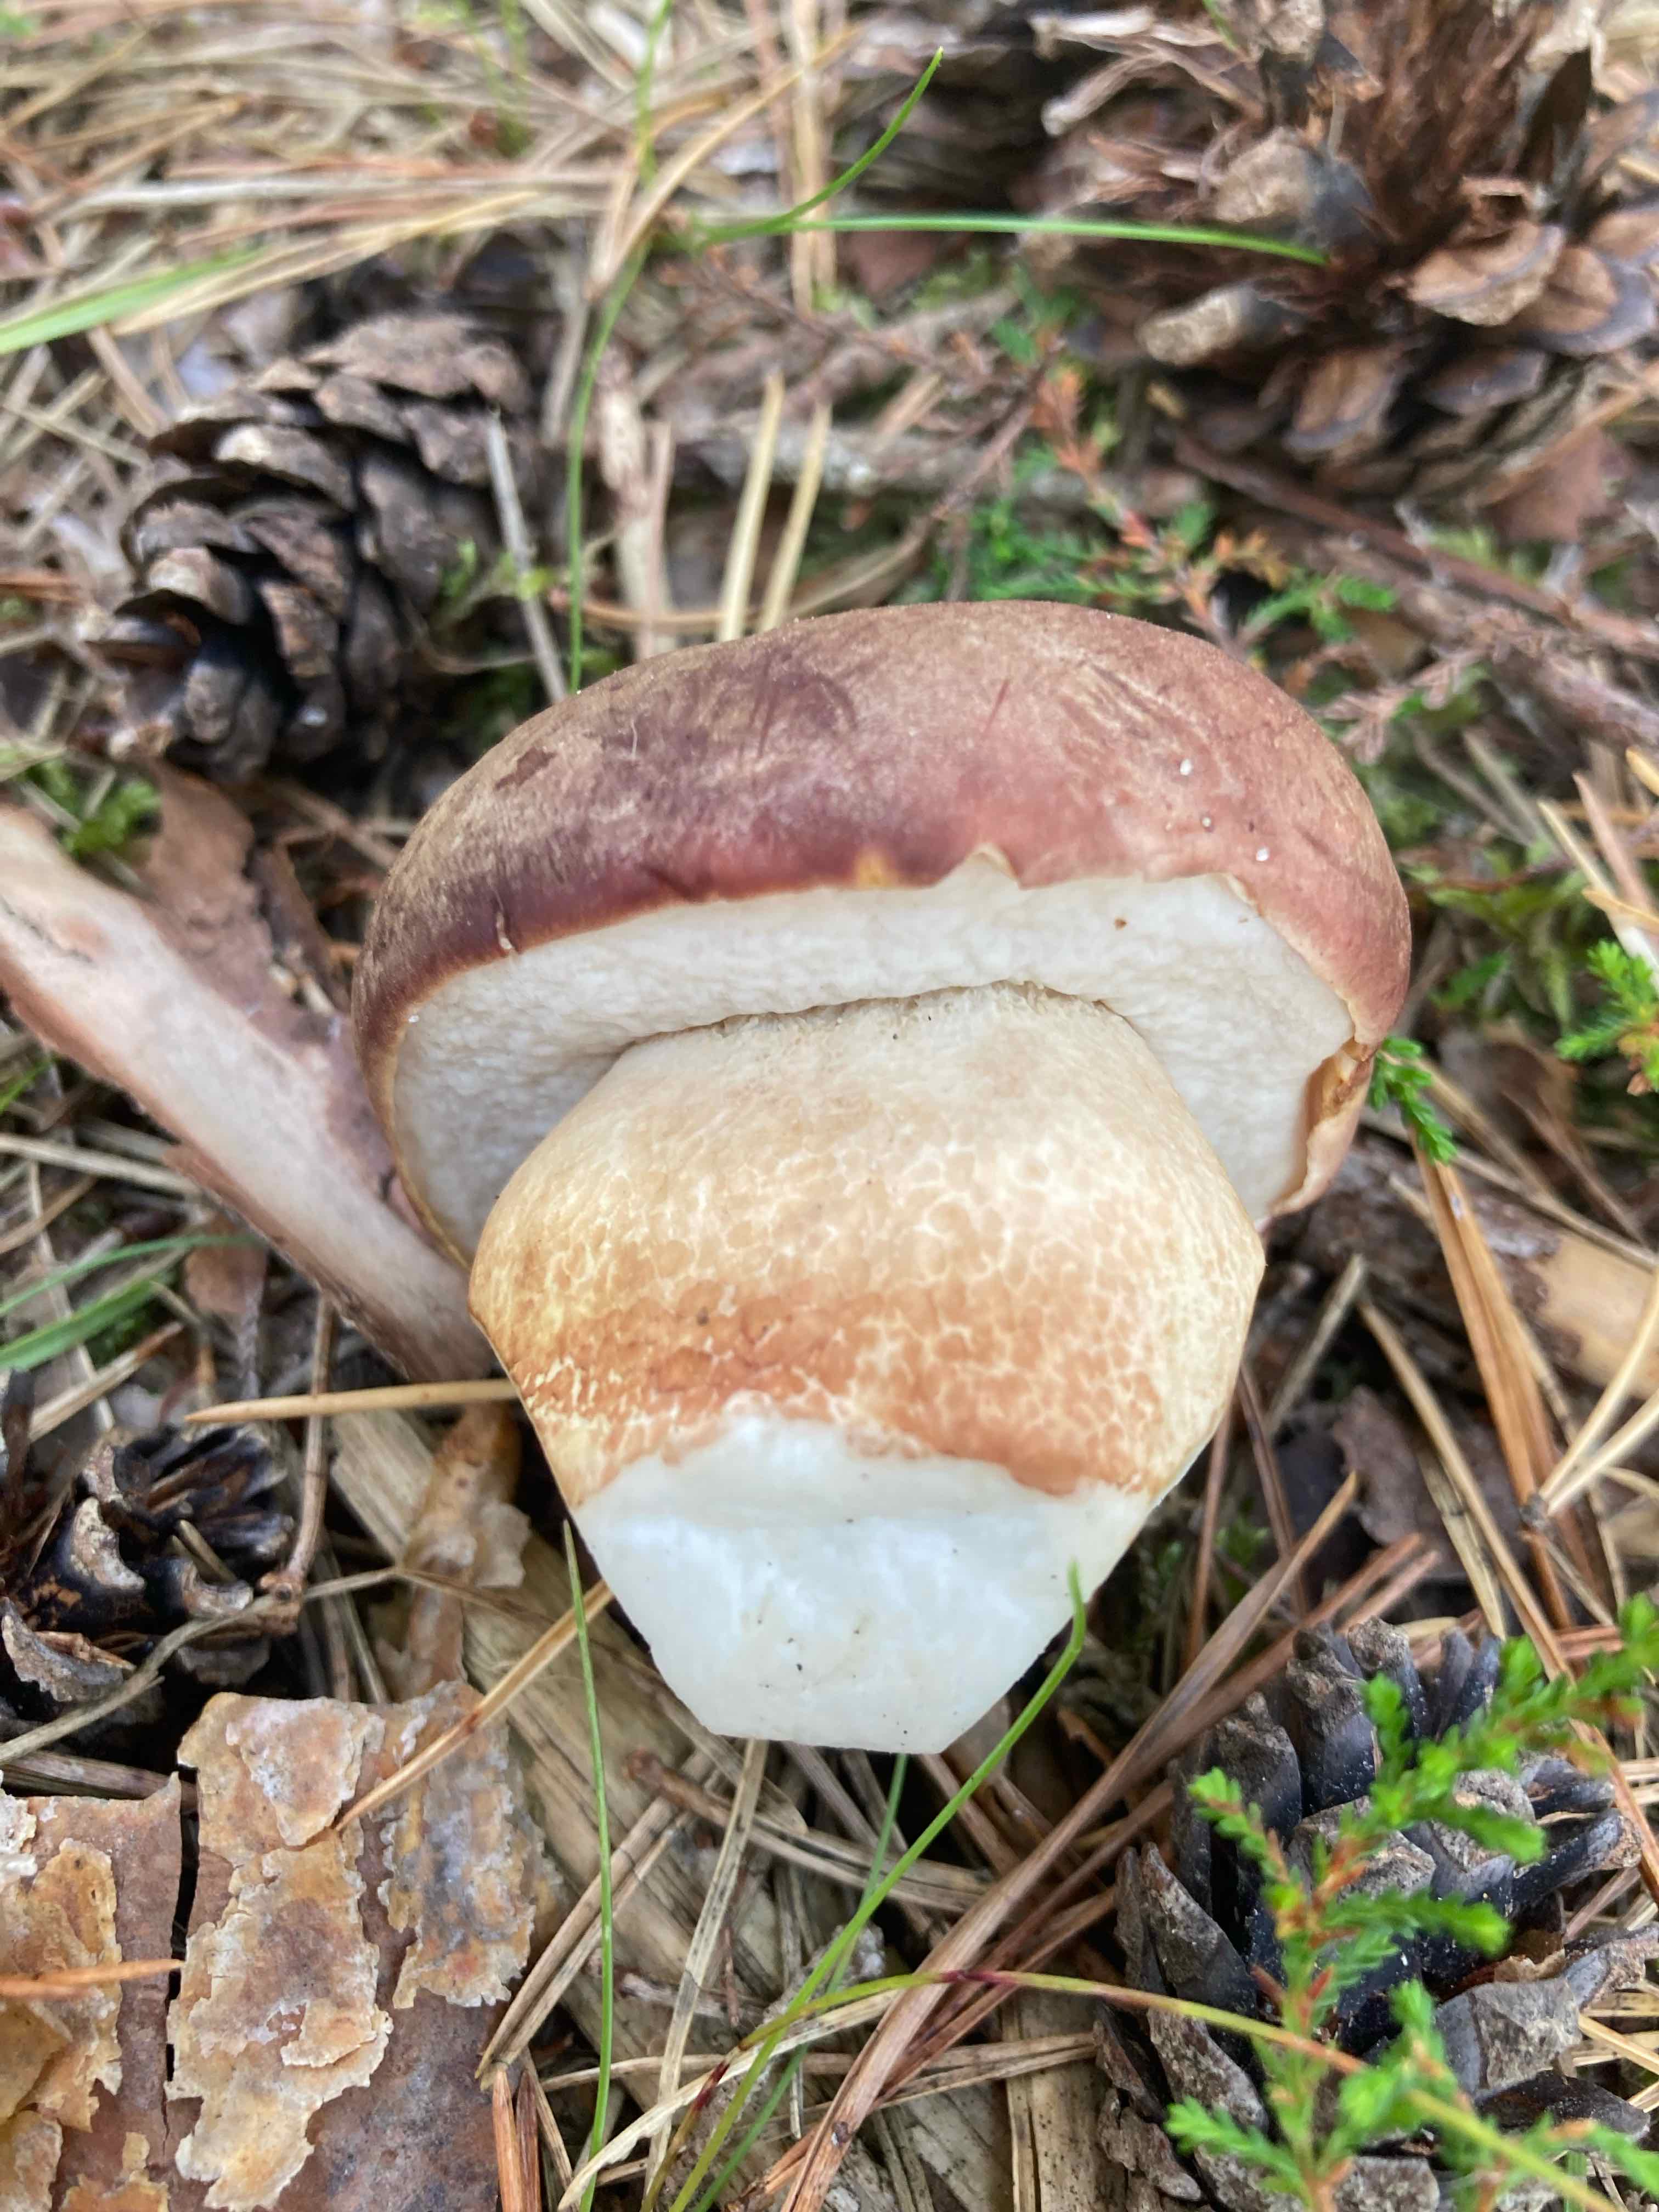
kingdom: Fungi
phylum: Basidiomycota
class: Agaricomycetes
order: Boletales
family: Boletaceae
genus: Boletus
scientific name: Boletus pinophilus
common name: rødbrun rørhat
